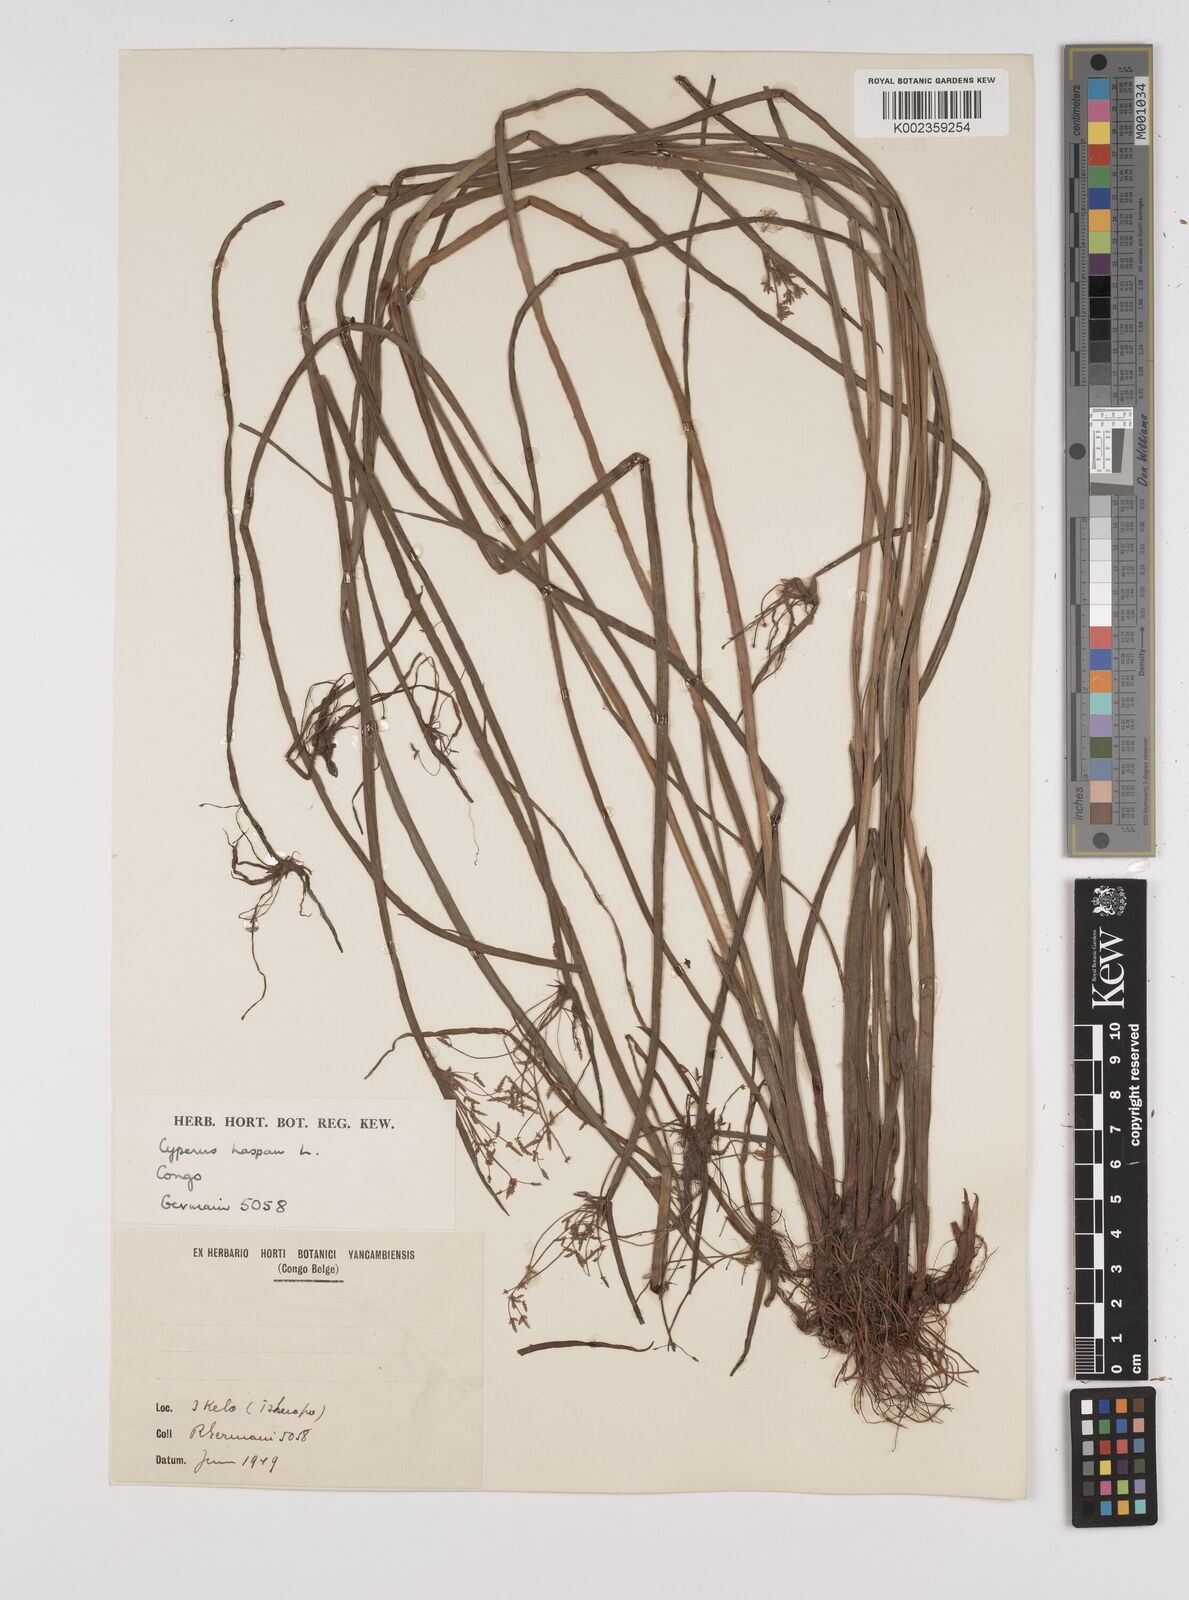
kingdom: Plantae
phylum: Tracheophyta
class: Liliopsida
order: Poales
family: Cyperaceae
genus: Cyperus
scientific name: Cyperus haspan
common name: Haspan flatsedge
